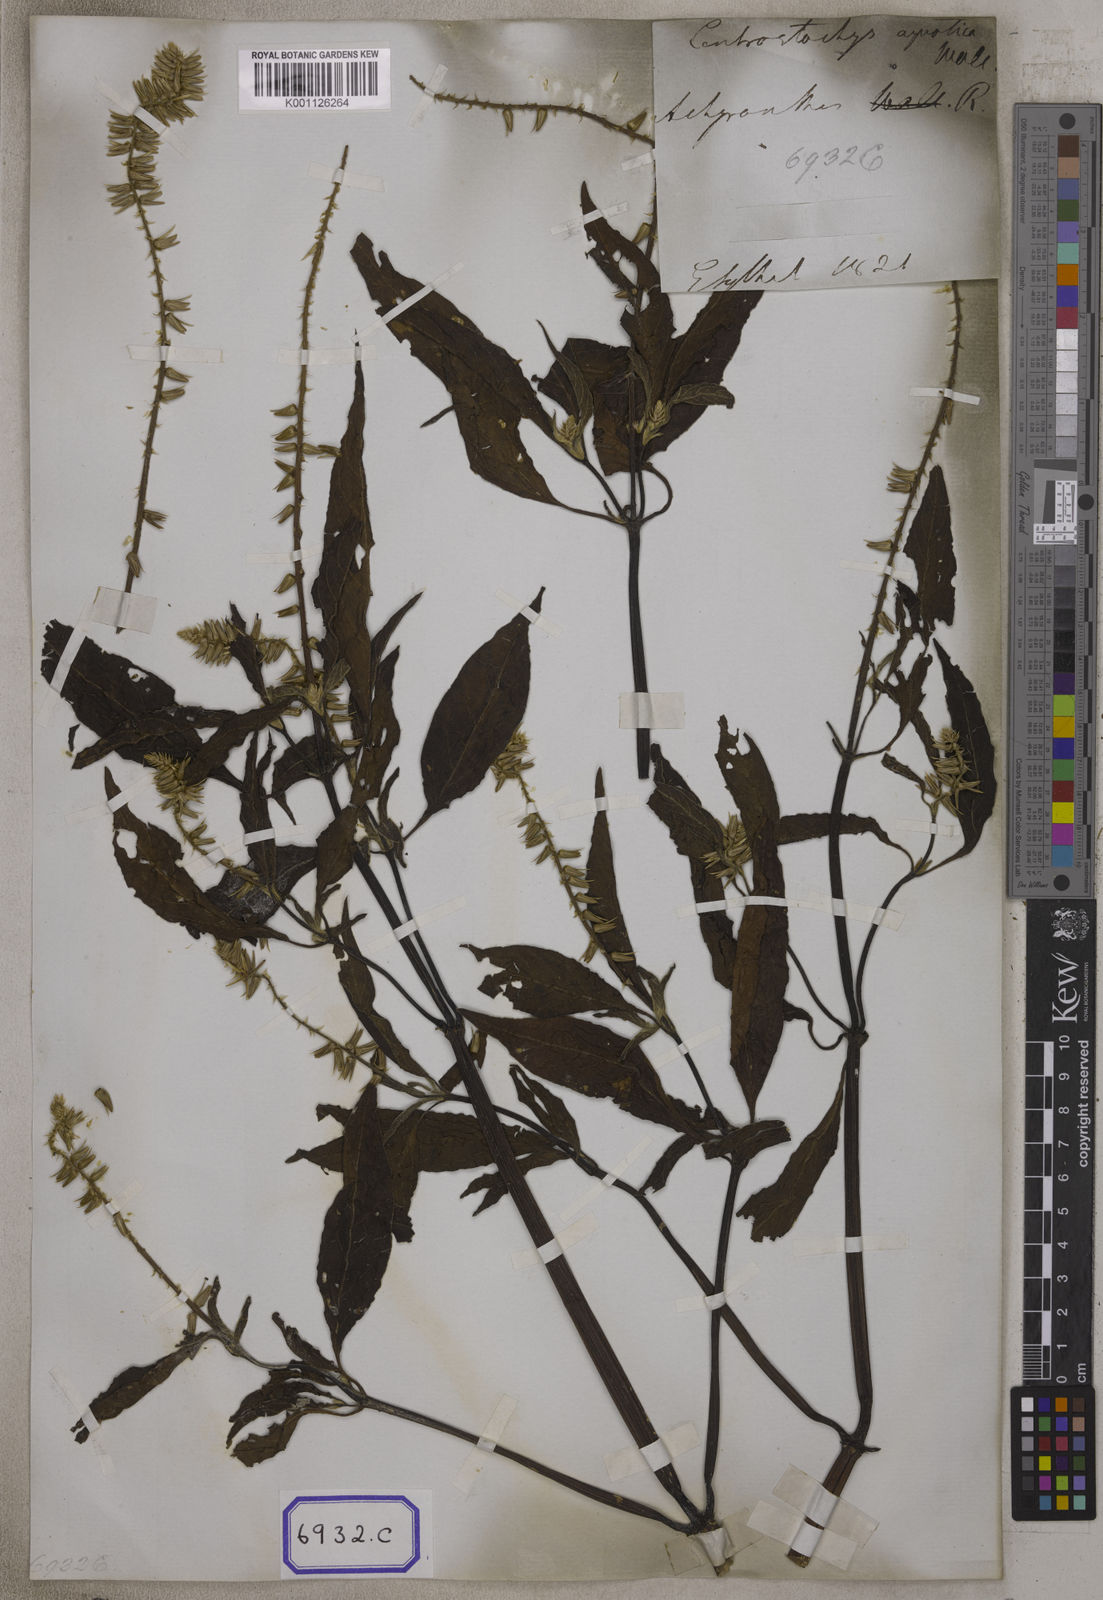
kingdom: Plantae
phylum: Tracheophyta
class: Magnoliopsida
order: Caryophyllales
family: Amaranthaceae
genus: Centrostachys
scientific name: Centrostachys
